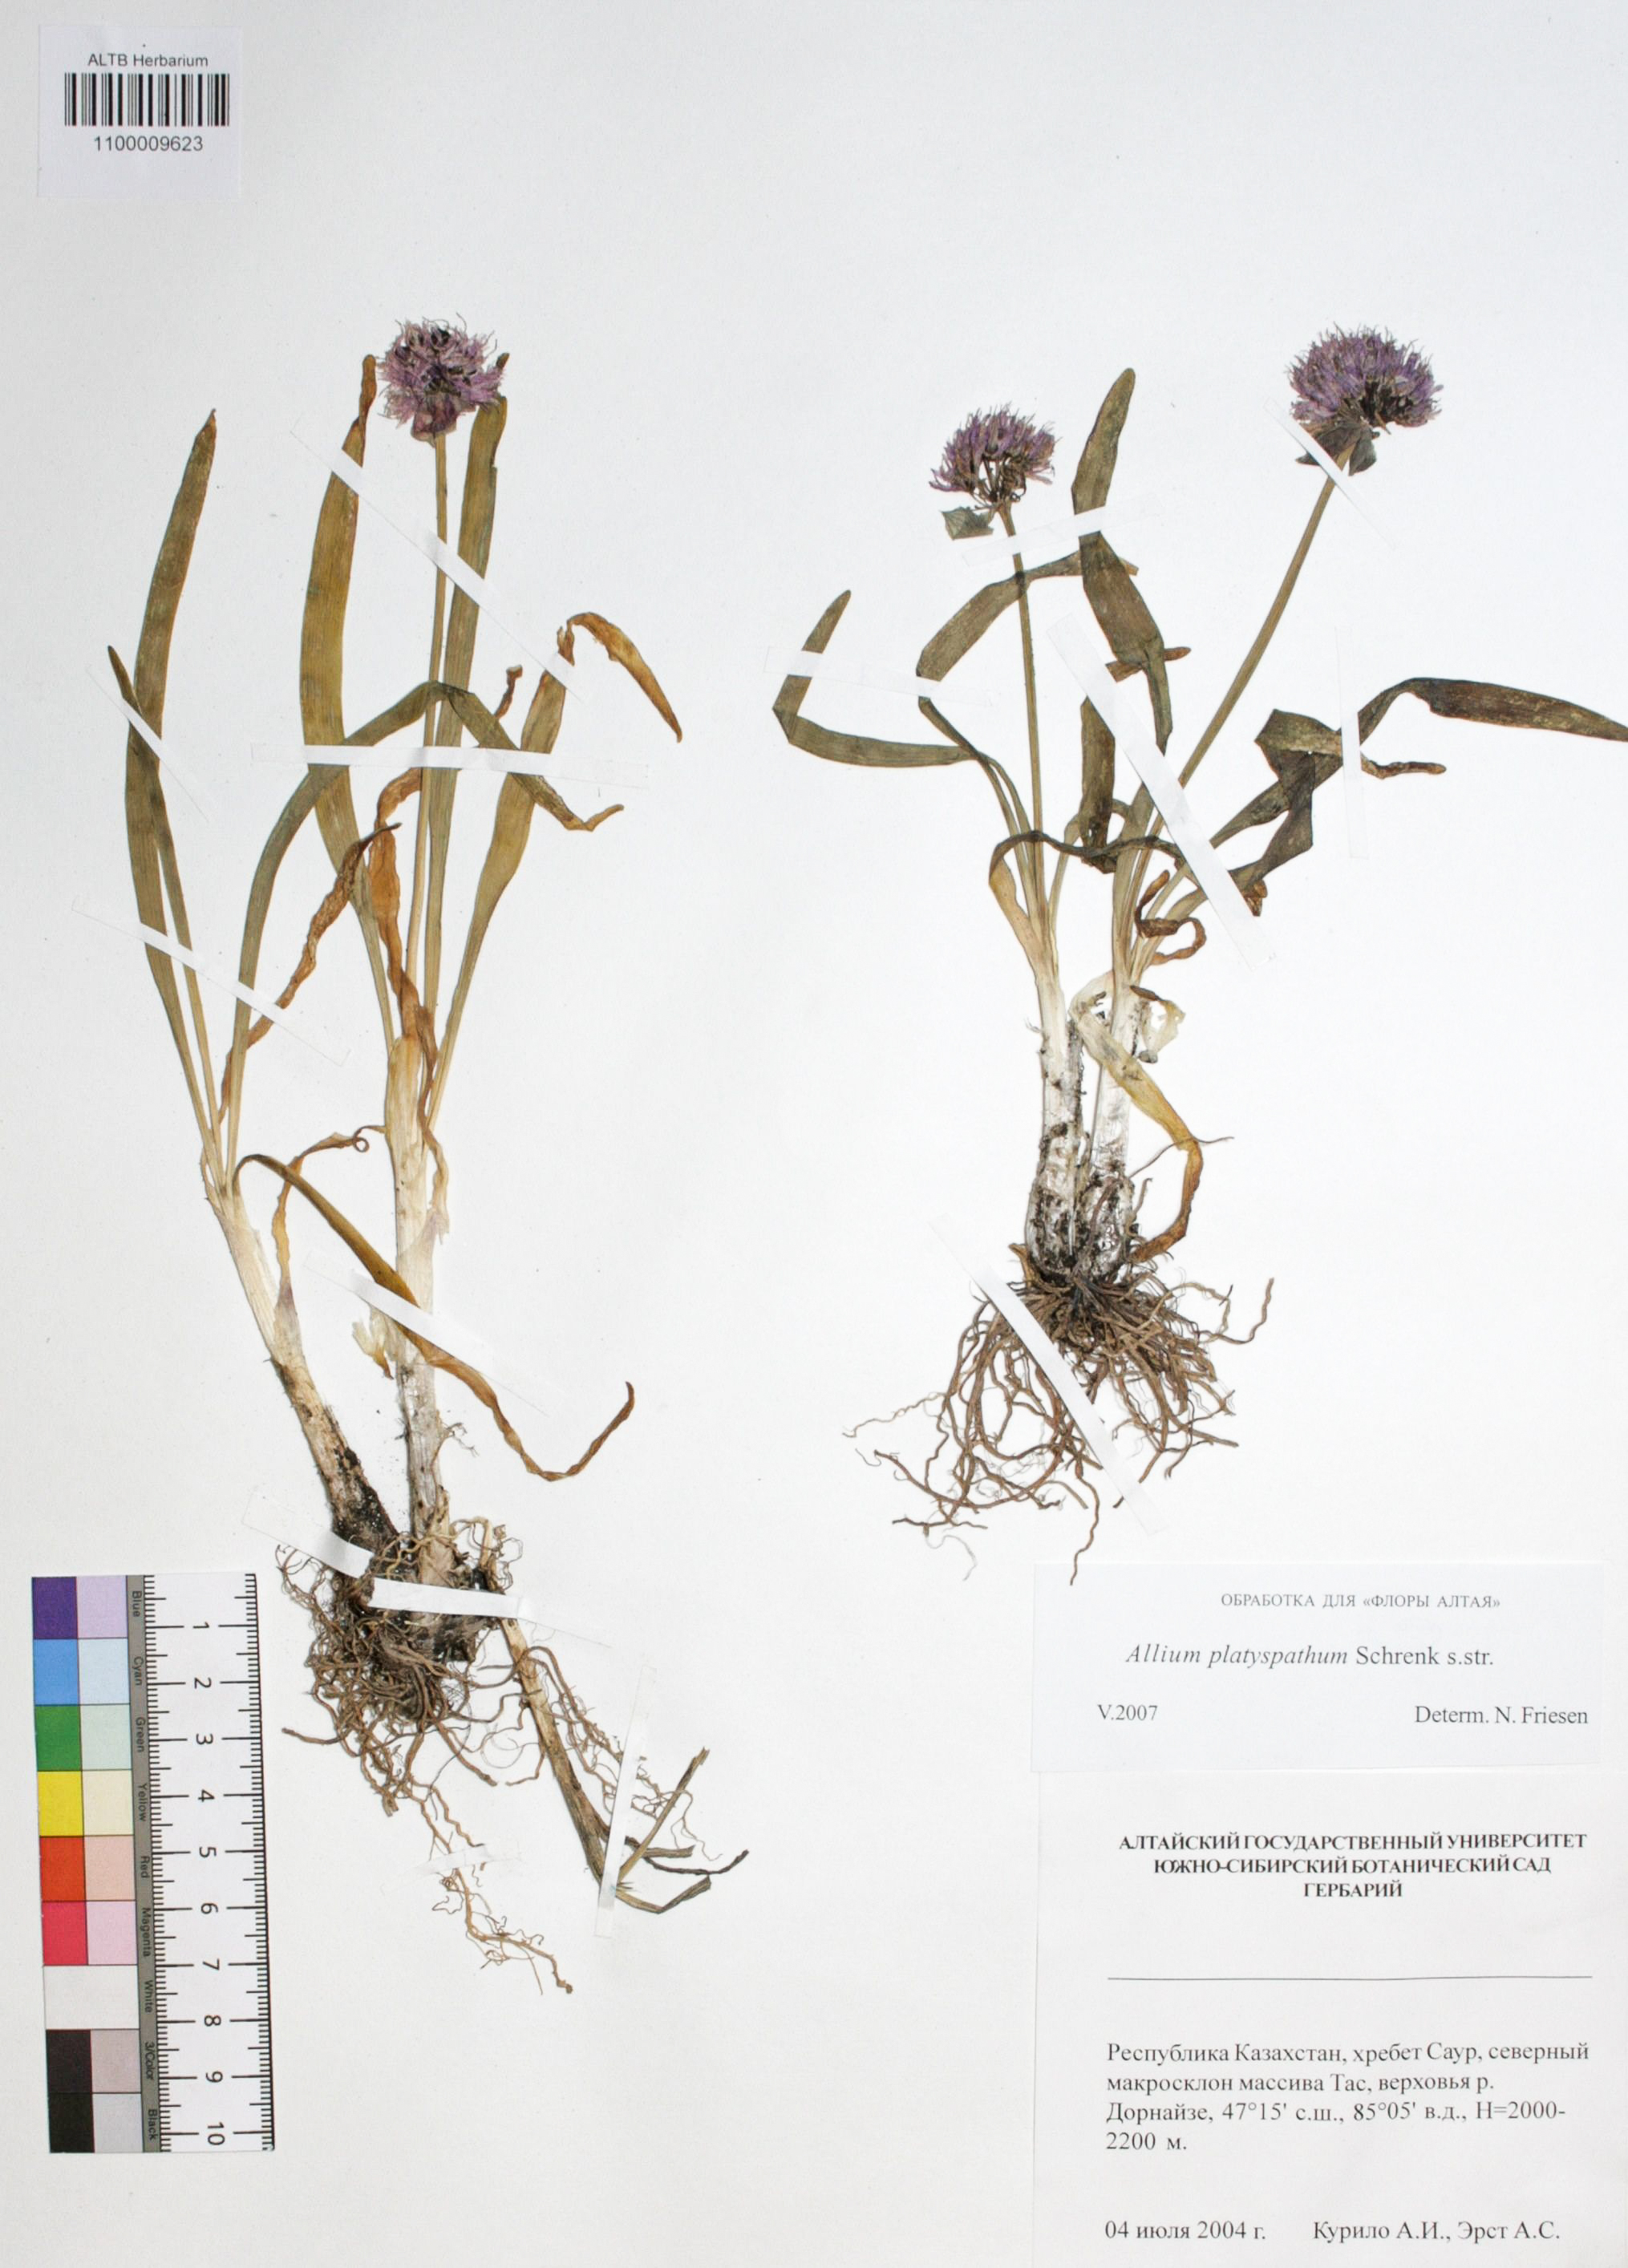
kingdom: Plantae
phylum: Tracheophyta
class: Liliopsida
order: Asparagales
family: Amaryllidaceae
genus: Allium
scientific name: Allium platyspathum
